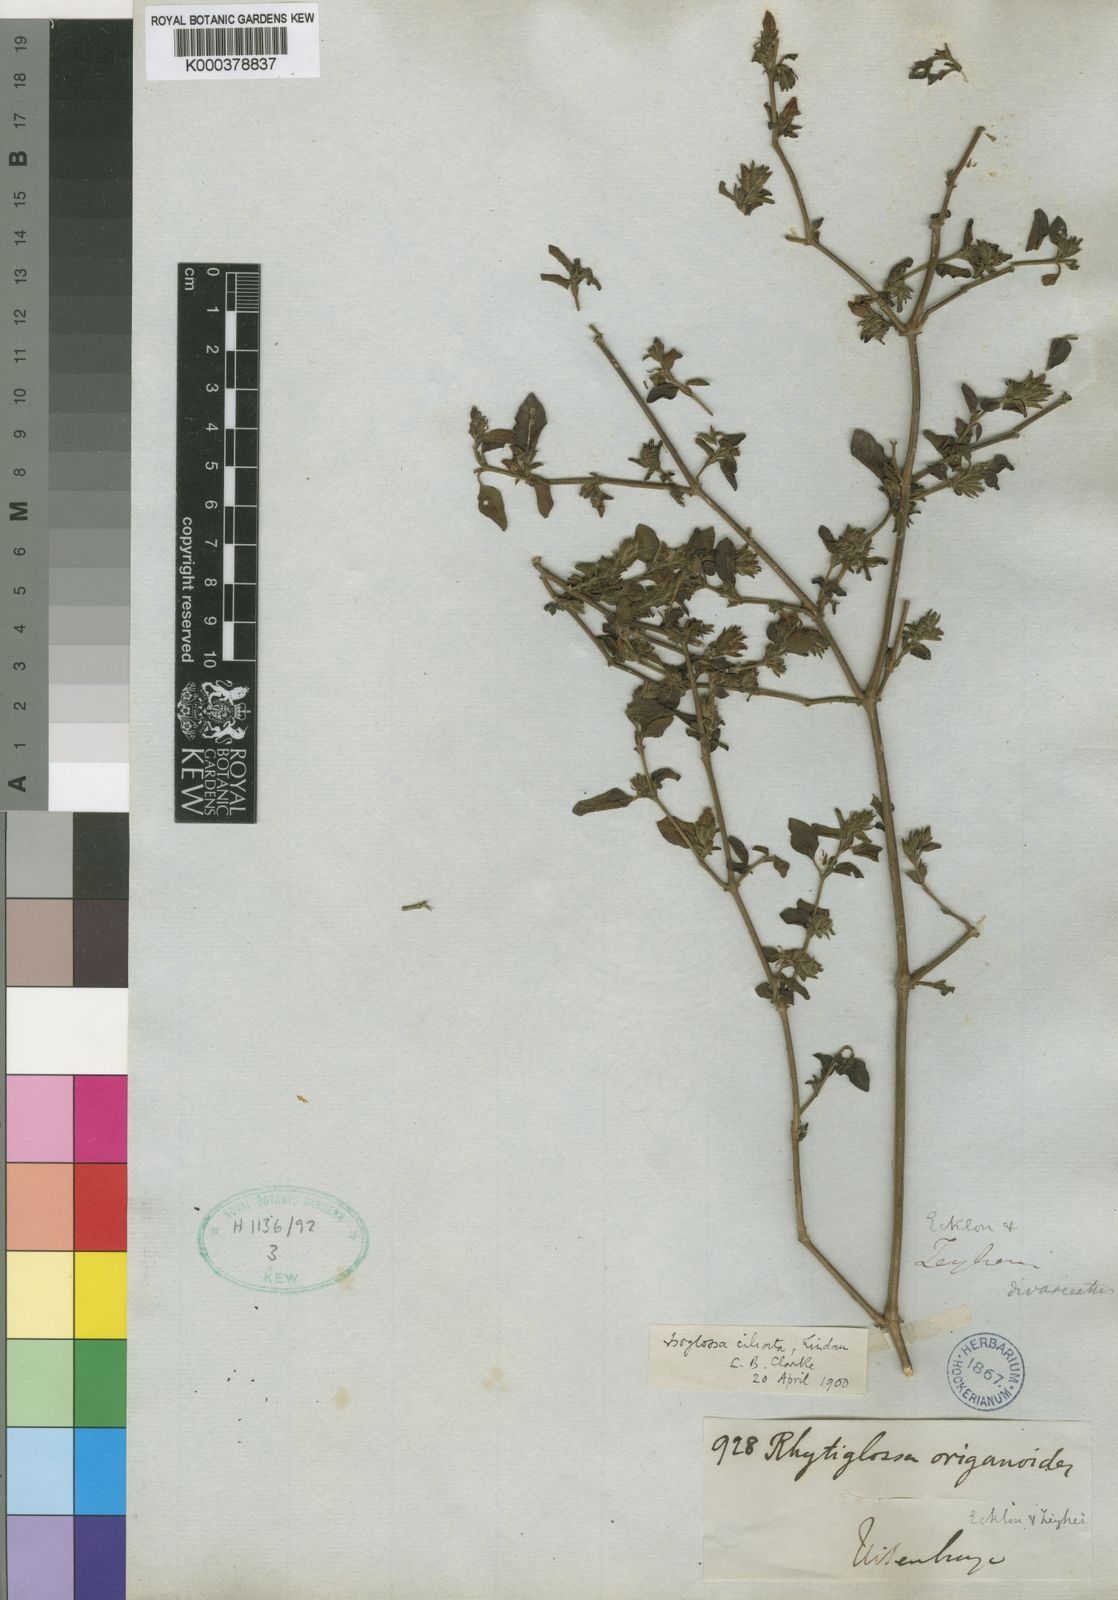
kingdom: Plantae
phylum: Tracheophyta
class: Magnoliopsida
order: Lamiales
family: Acanthaceae
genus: Isoglossa
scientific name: Isoglossa
